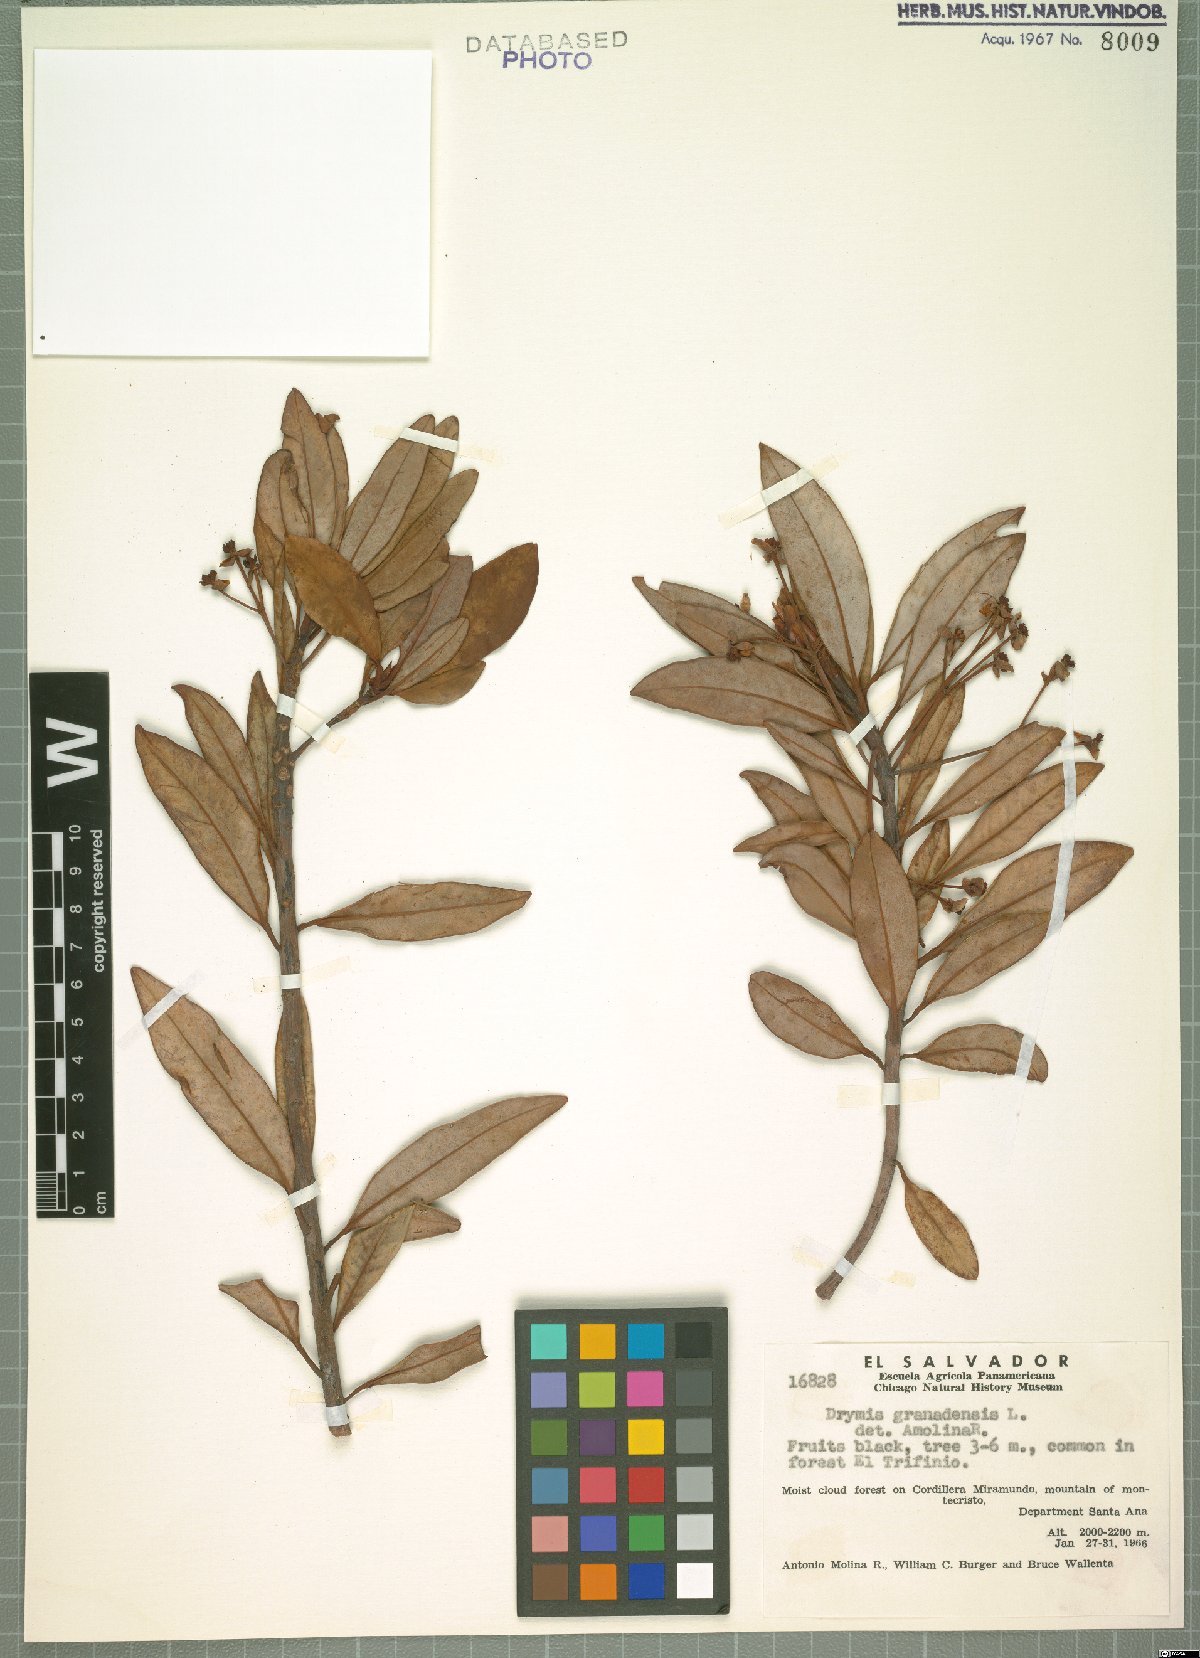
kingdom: Plantae
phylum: Tracheophyta
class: Magnoliopsida
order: Canellales
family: Winteraceae
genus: Drimys
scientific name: Drimys granadensis
